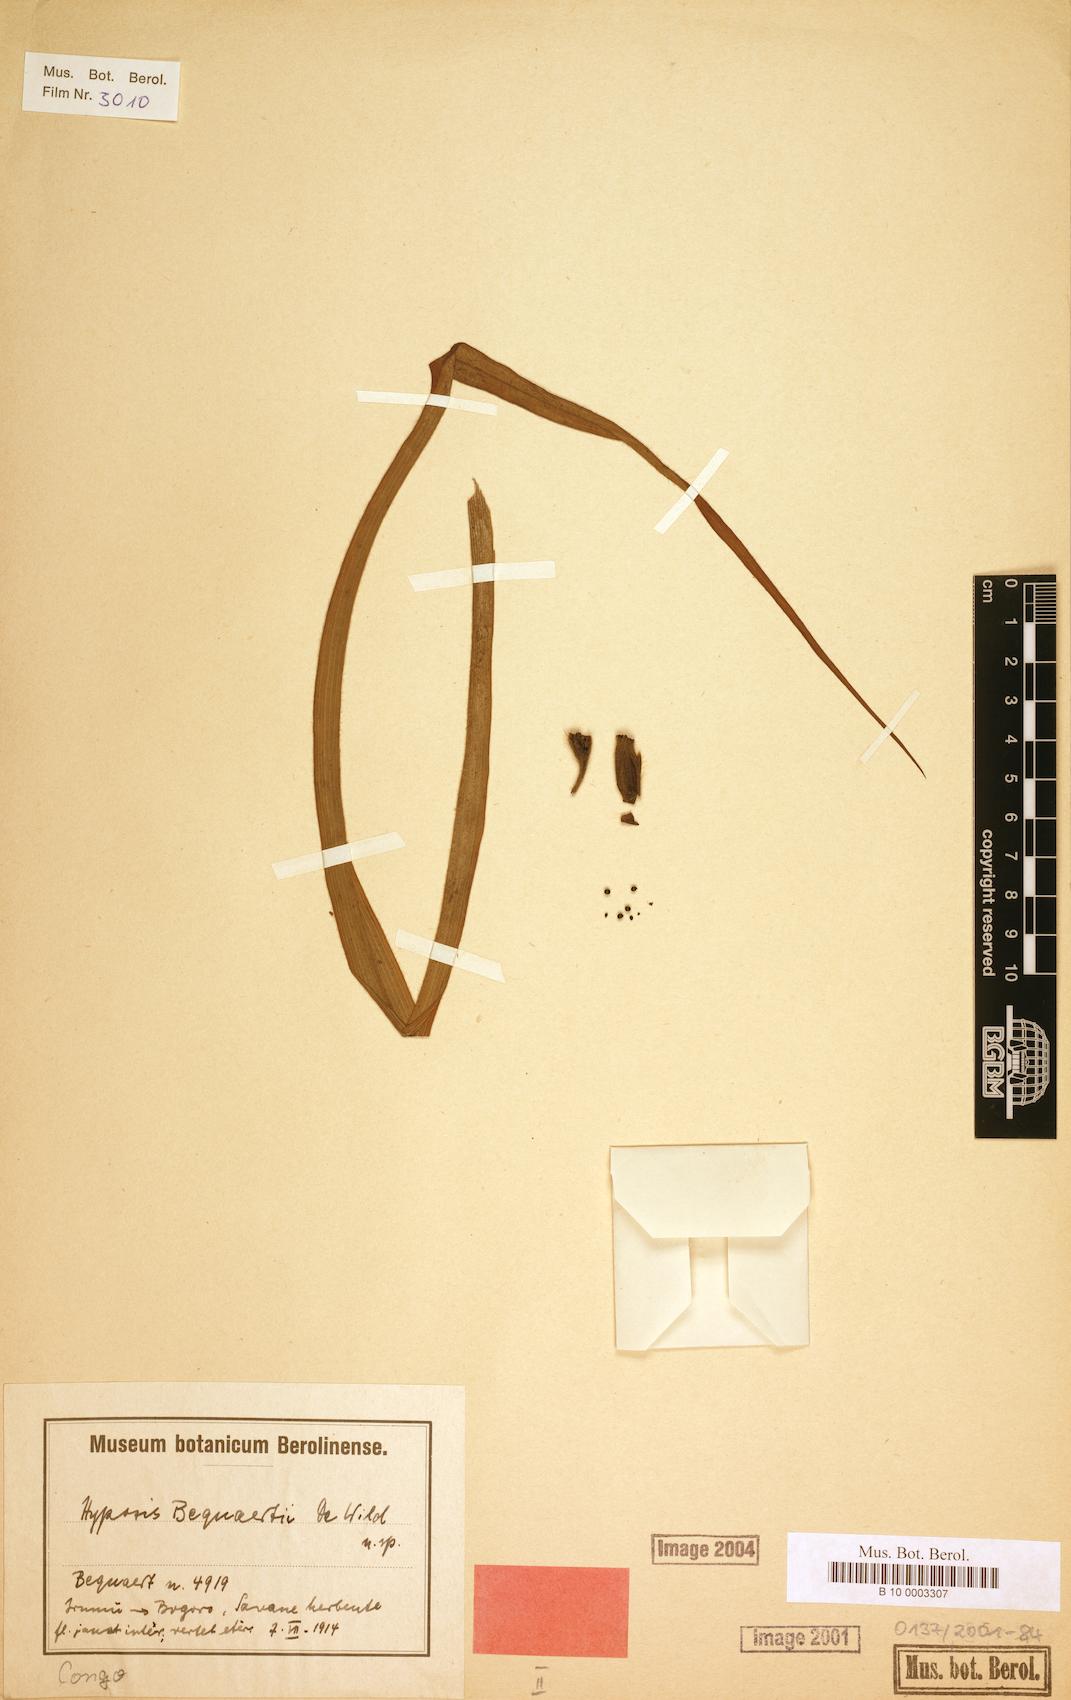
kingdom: Plantae
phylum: Tracheophyta
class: Liliopsida
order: Asparagales
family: Hypoxidaceae
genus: Hypoxis
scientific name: Hypoxis urceolata
